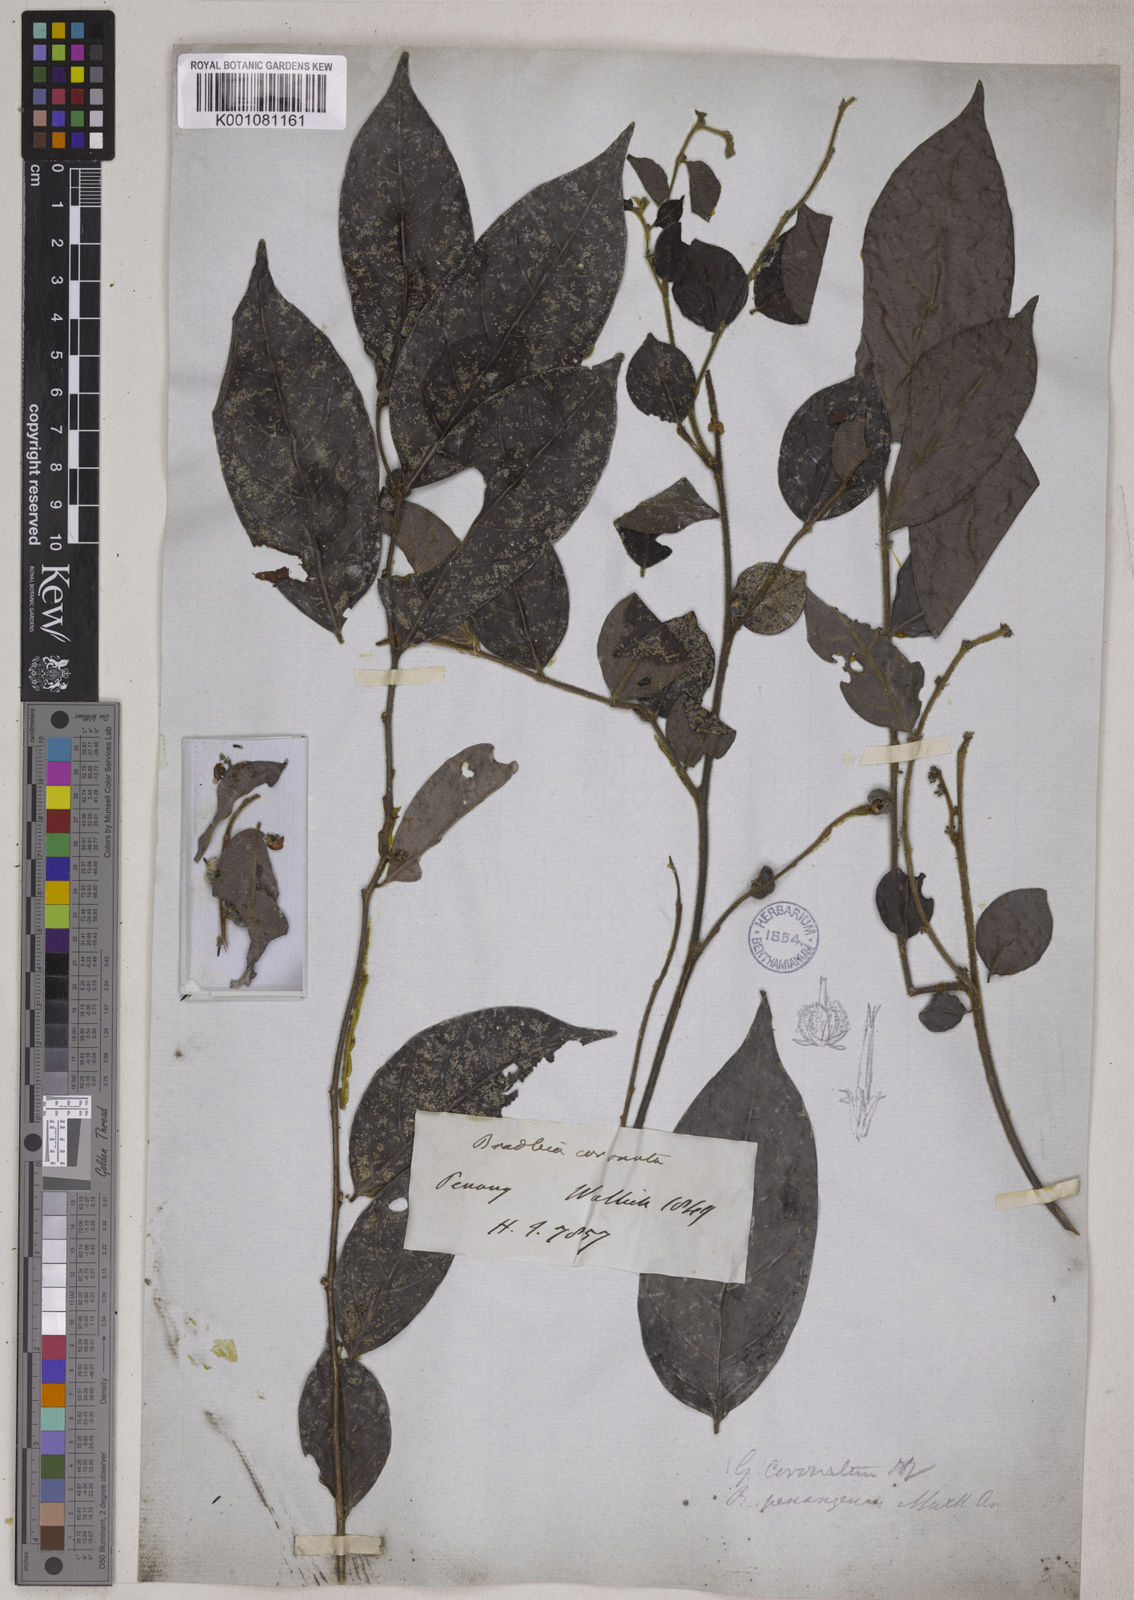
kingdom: Plantae
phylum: Tracheophyta
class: Magnoliopsida
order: Malpighiales
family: Phyllanthaceae
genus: Glochidion
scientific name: Glochidion rubrum
